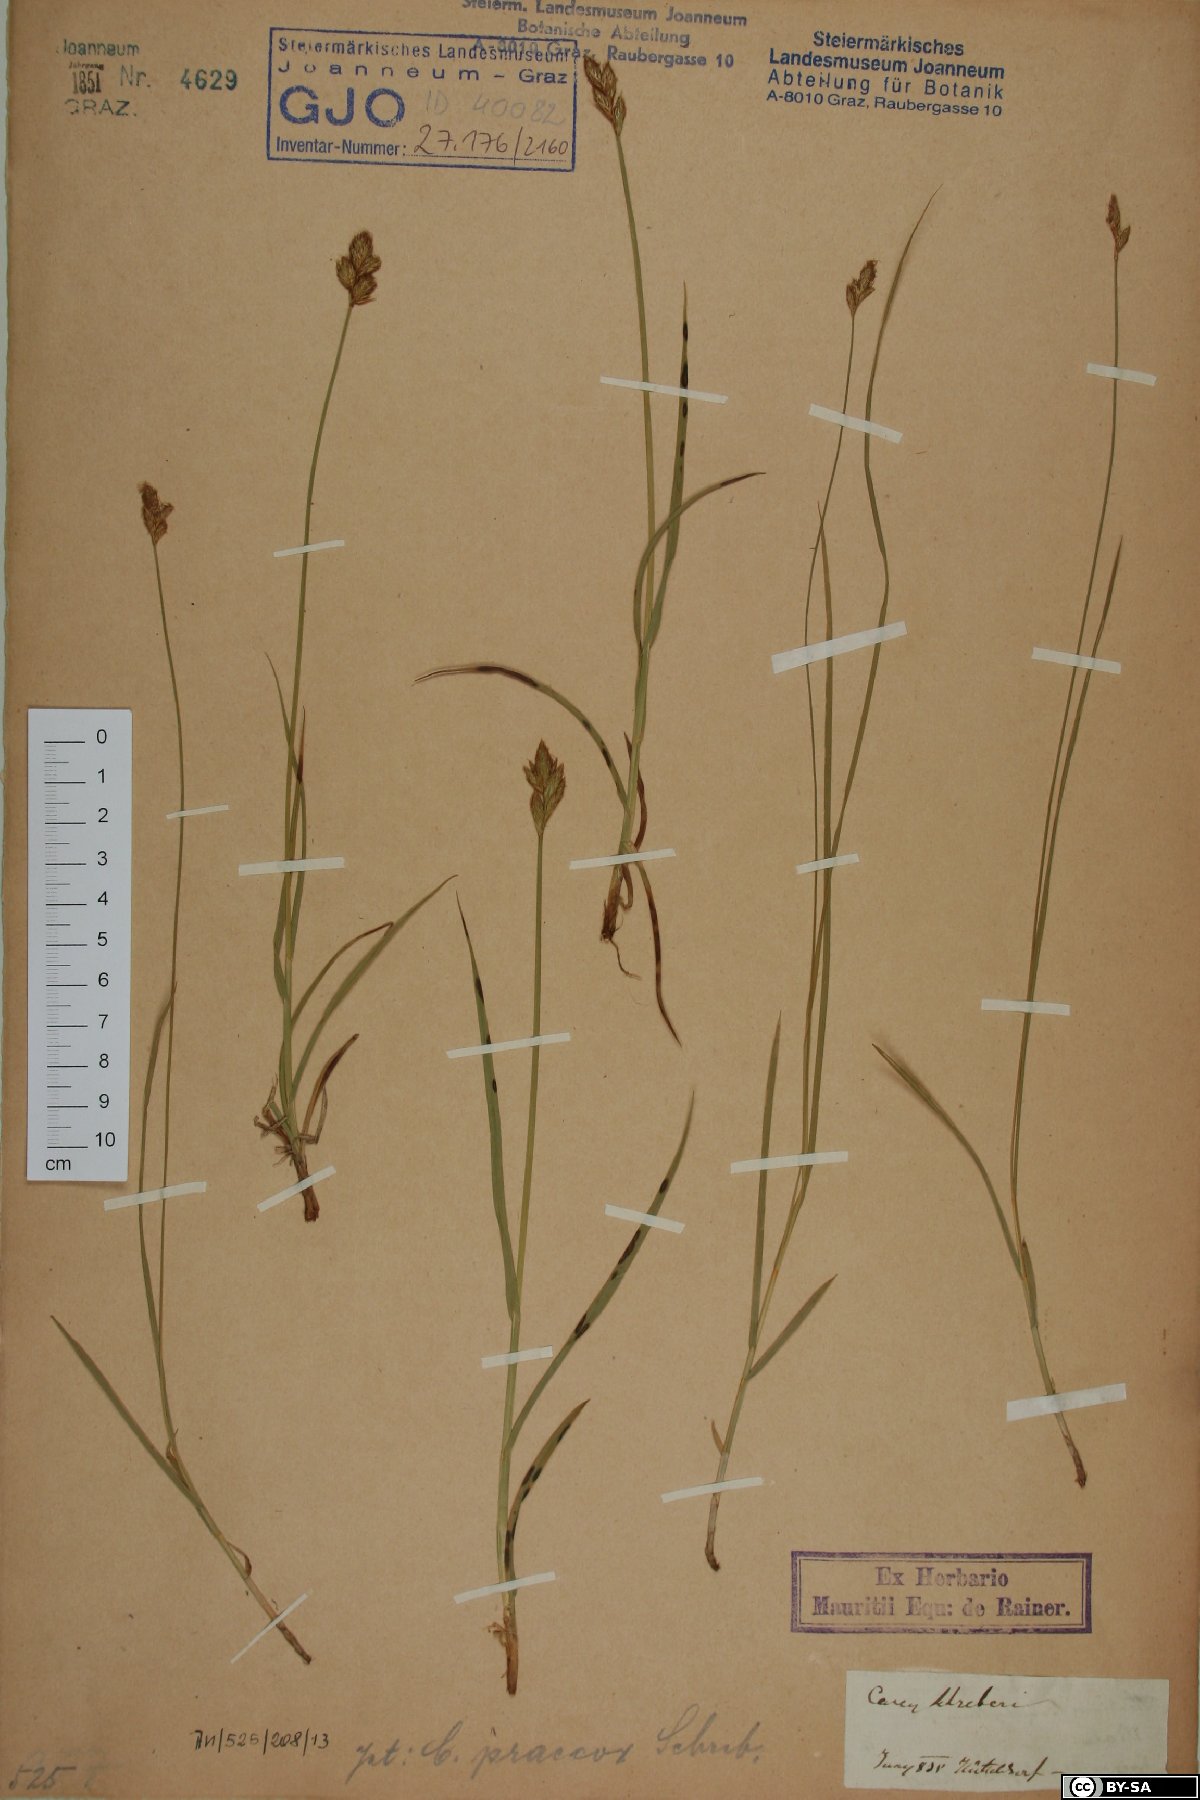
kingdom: Plantae
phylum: Tracheophyta
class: Liliopsida
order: Poales
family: Cyperaceae
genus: Carex
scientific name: Carex praecox
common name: Early sedge
